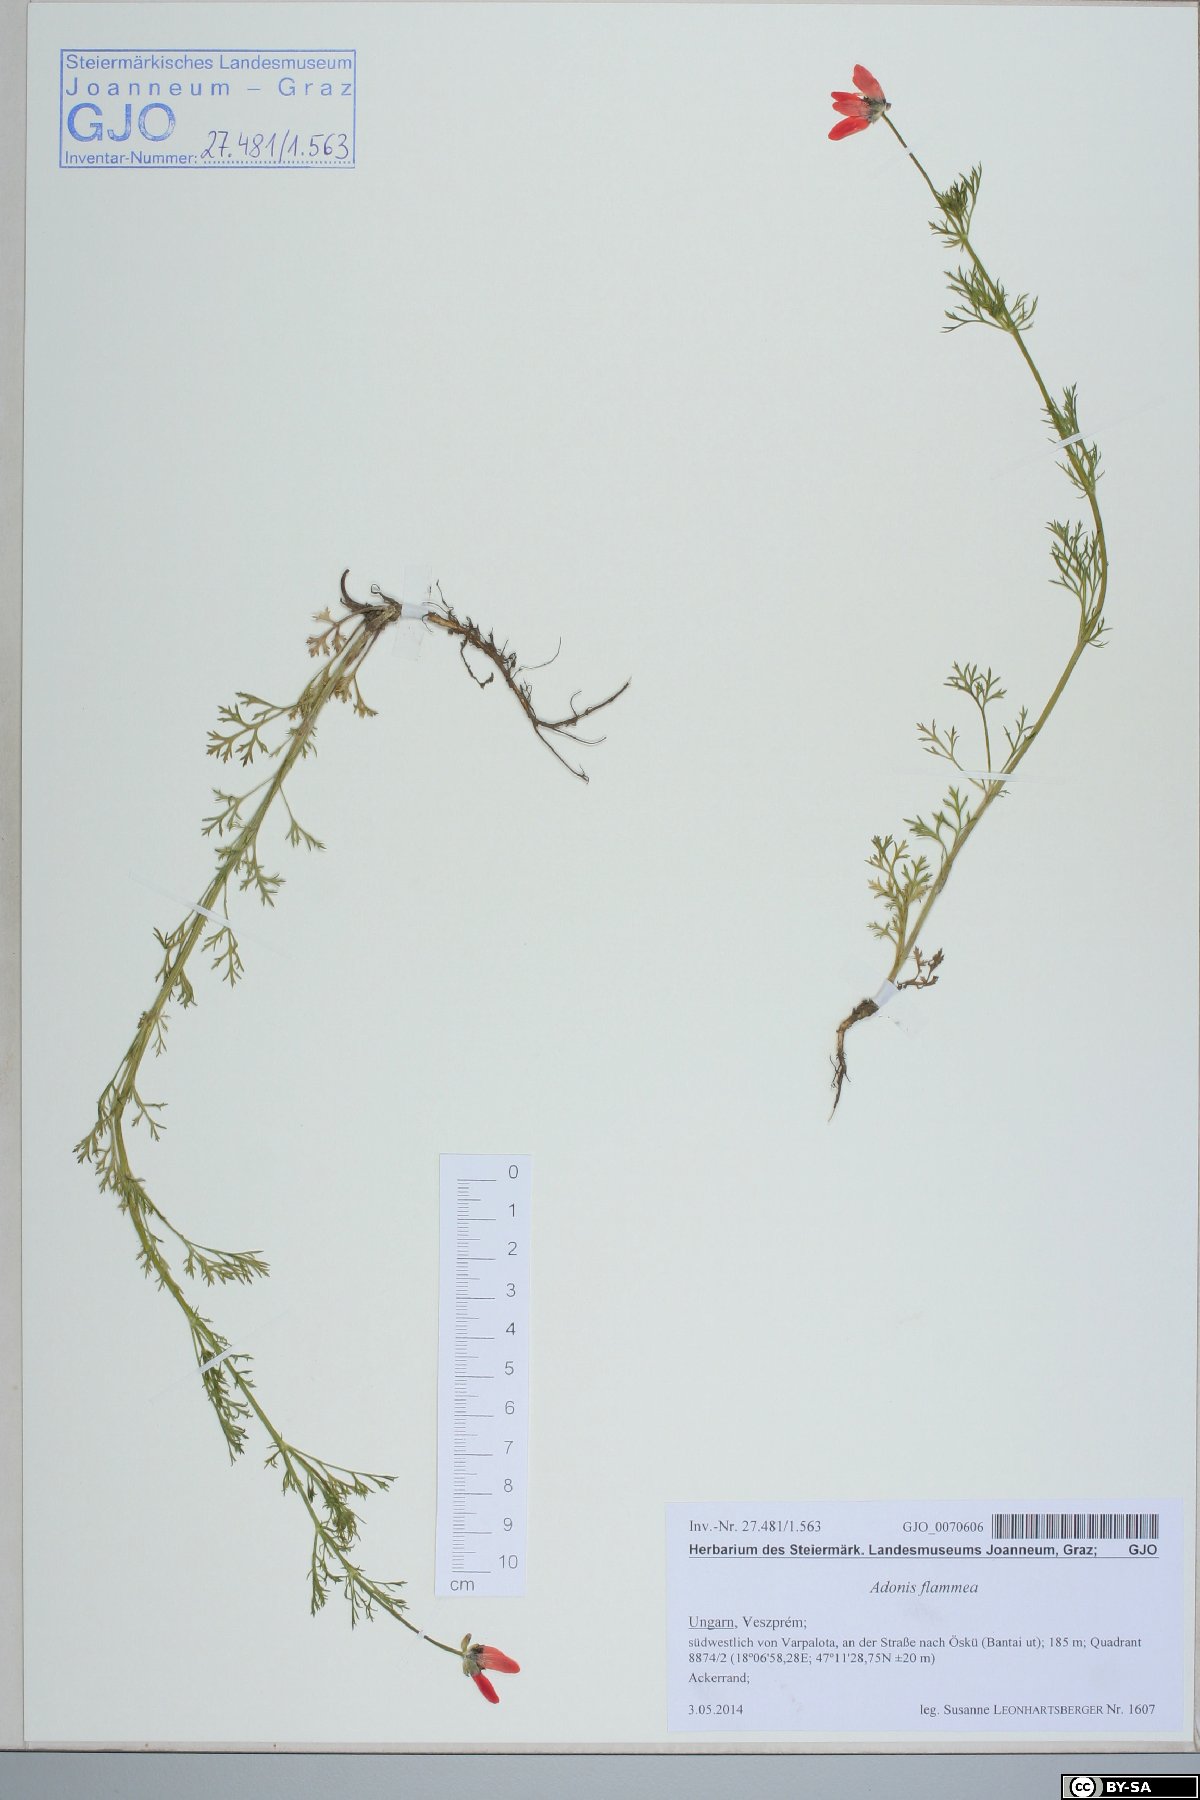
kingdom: Plantae
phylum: Tracheophyta
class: Magnoliopsida
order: Ranunculales
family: Ranunculaceae
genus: Adonis
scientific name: Adonis flammea
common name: Large pheasant's-eye
